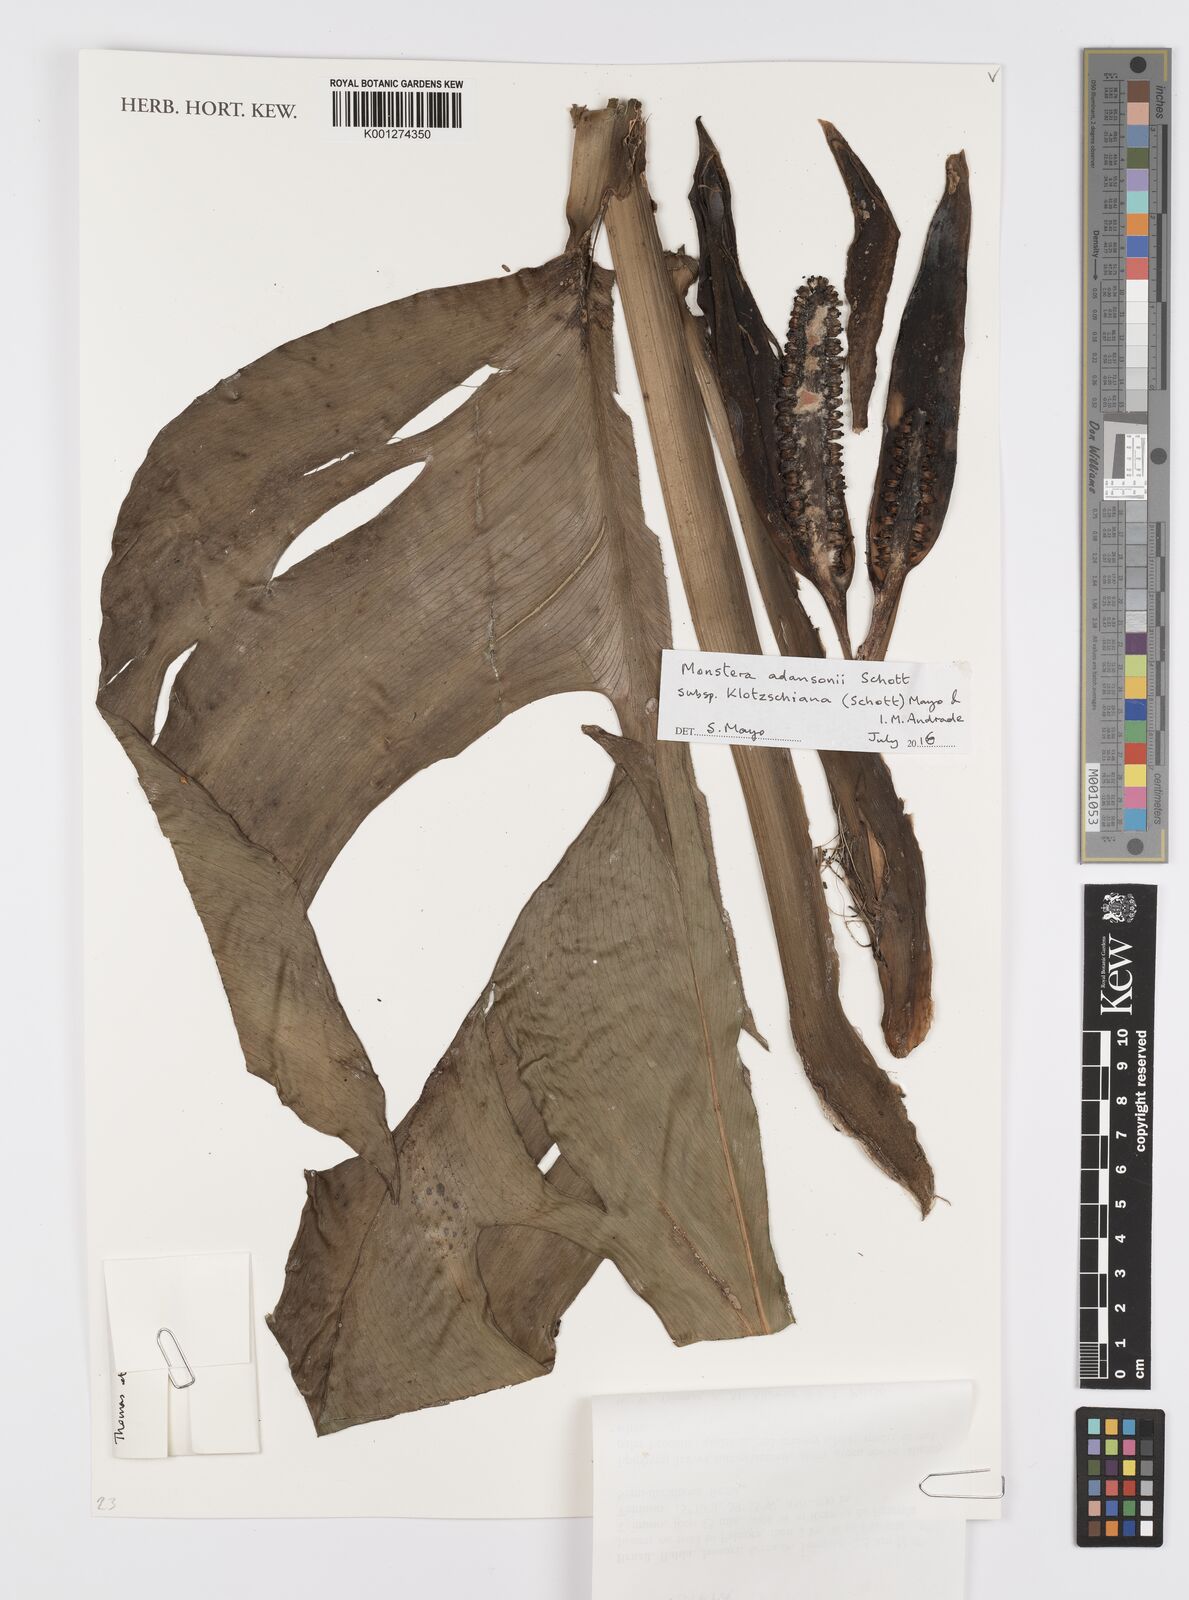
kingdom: Plantae
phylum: Tracheophyta
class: Liliopsida
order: Alismatales
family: Araceae
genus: Monstera
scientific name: Monstera adansonii
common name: Tarovine
